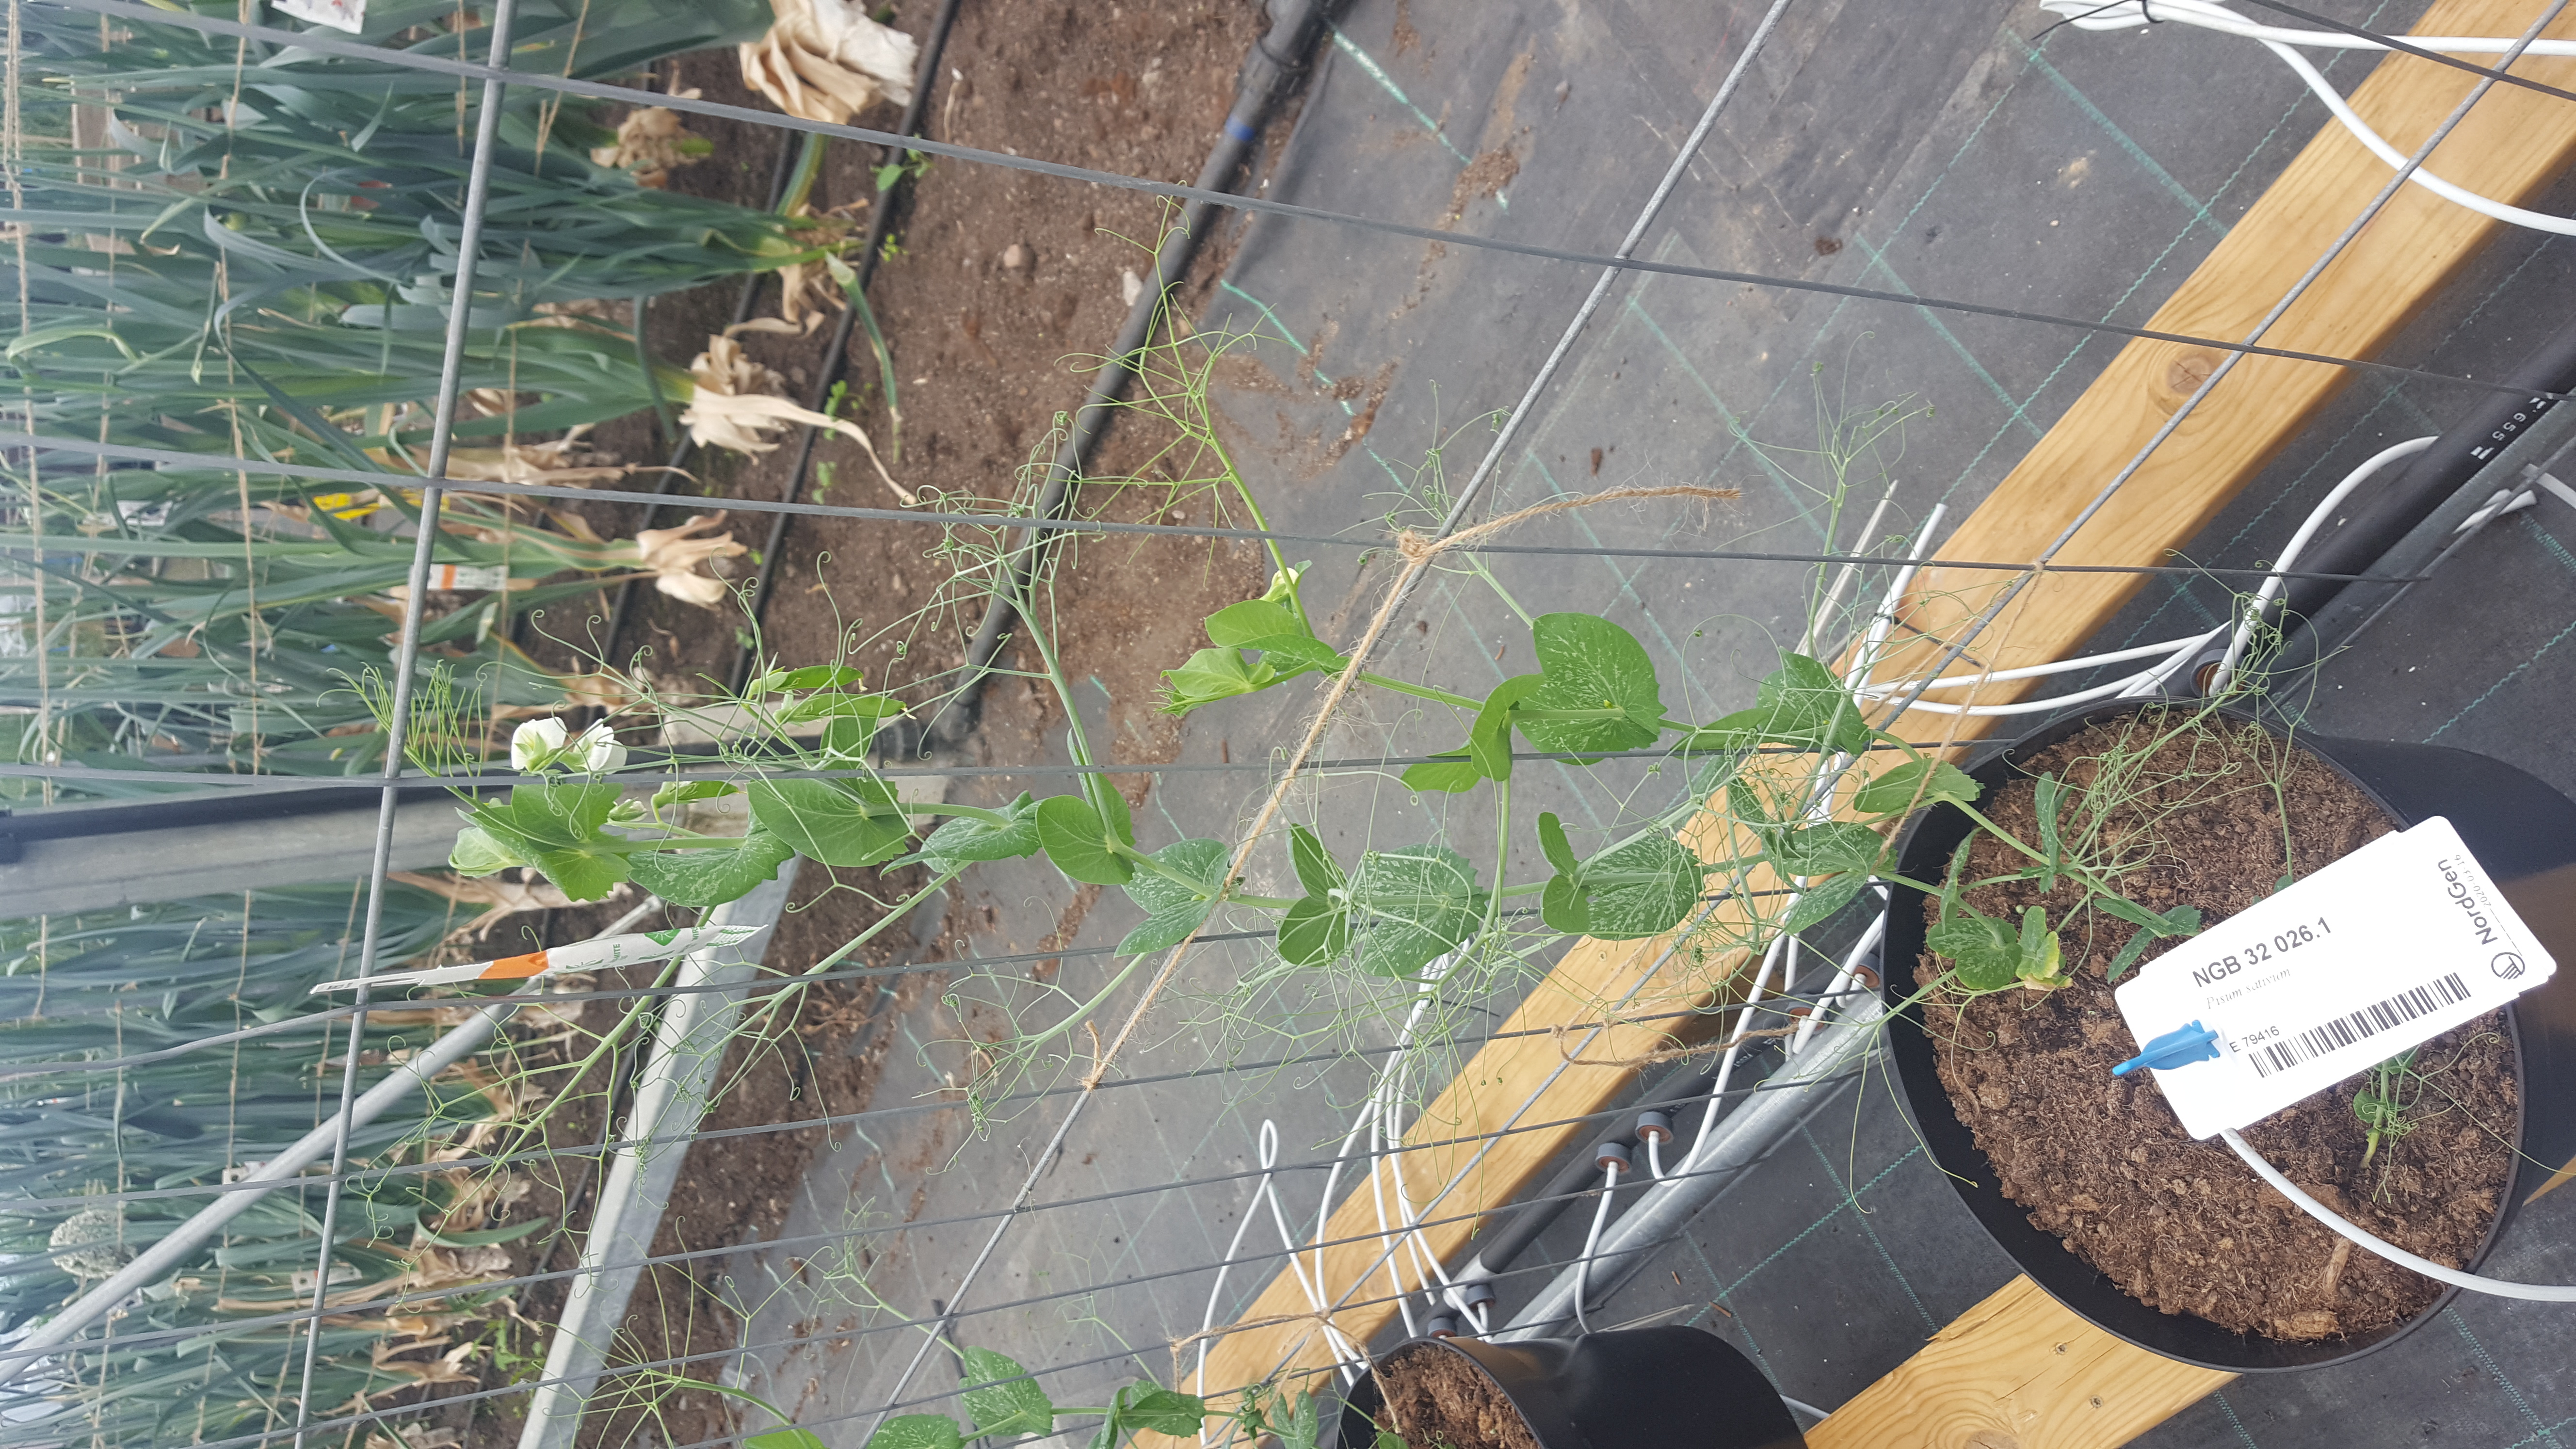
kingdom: Plantae
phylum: Tracheophyta
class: Magnoliopsida
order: Fabales
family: Fabaceae
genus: Lathyrus
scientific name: Lathyrus oleraceus
